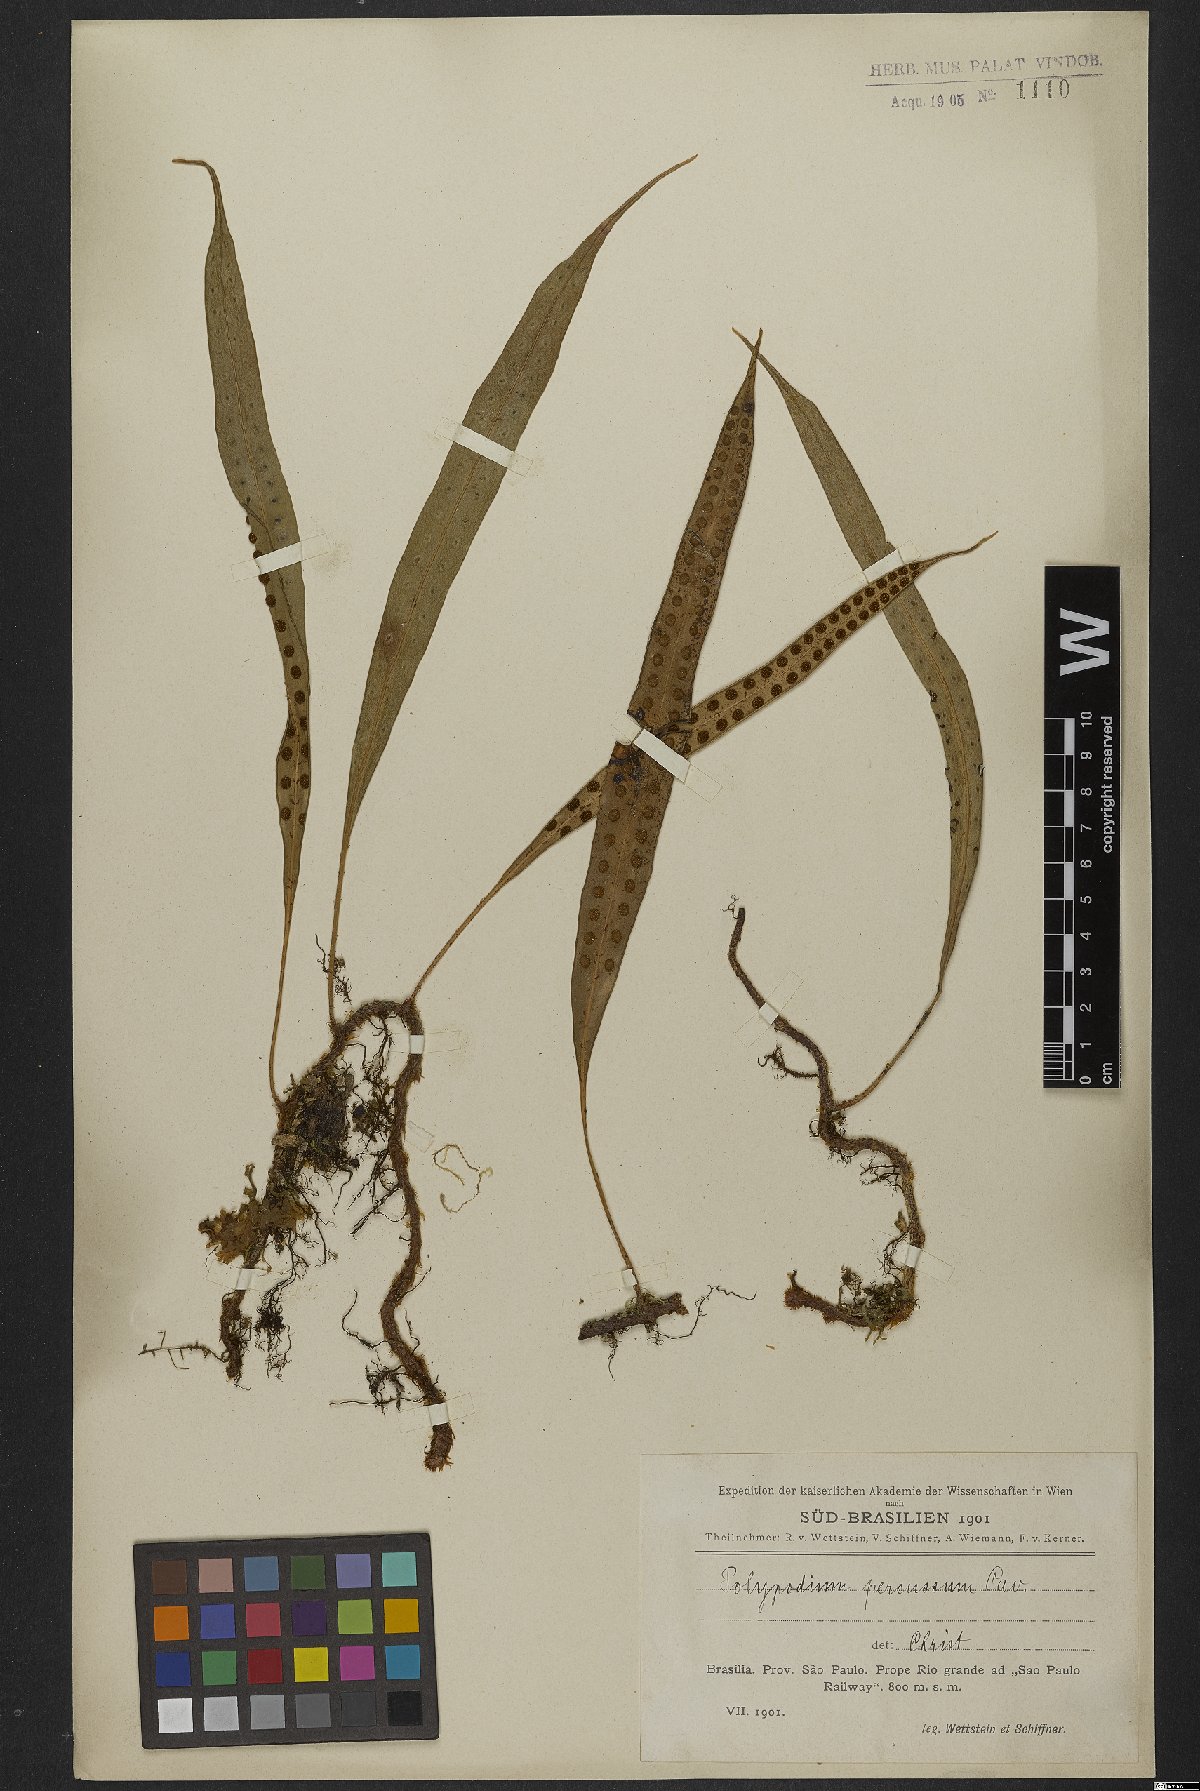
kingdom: Plantae
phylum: Tracheophyta
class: Polypodiopsida
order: Polypodiales
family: Polypodiaceae
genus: Microgramma
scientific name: Microgramma percussa
